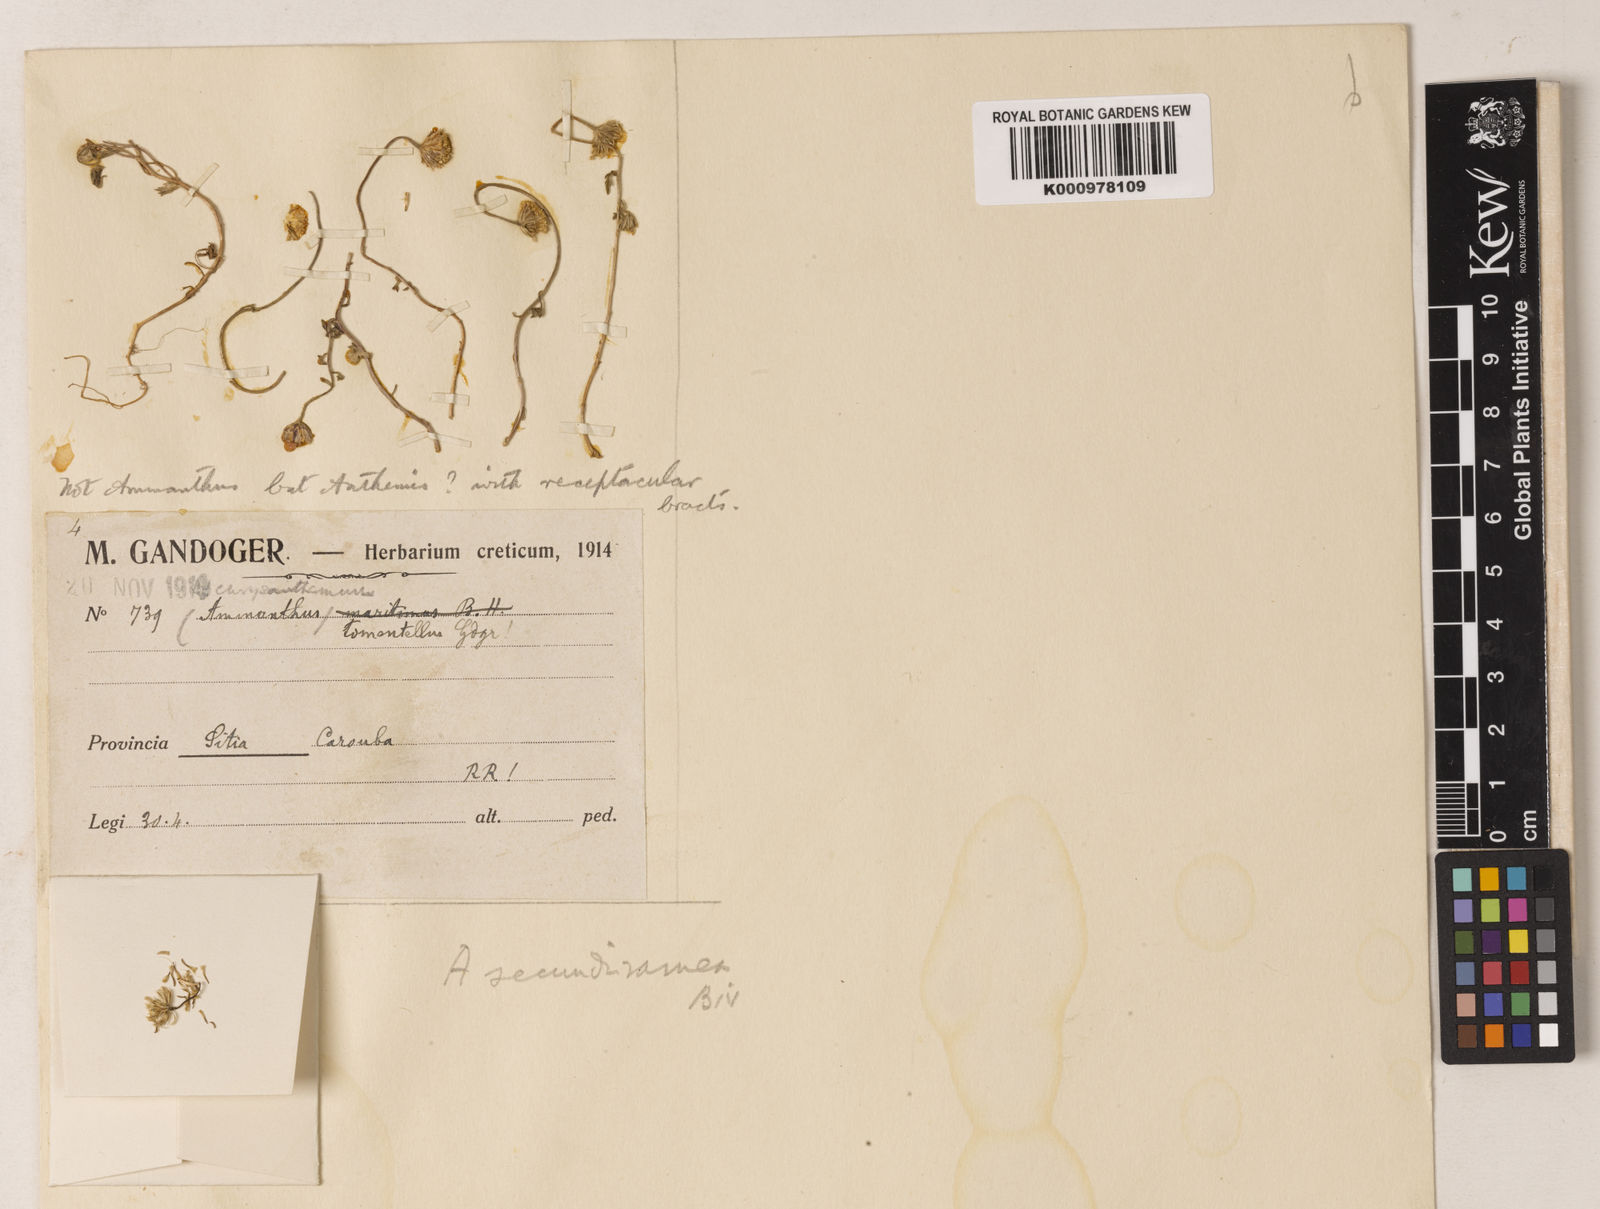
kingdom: Plantae
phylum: Tracheophyta
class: Magnoliopsida
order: Asterales
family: Asteraceae
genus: Anthemis
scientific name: Anthemis secundiramea
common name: Prostrate chamomile
